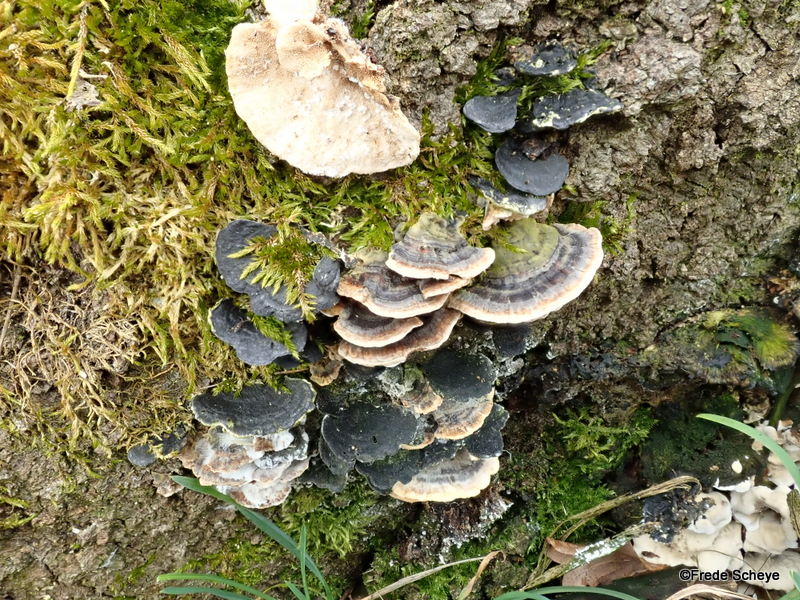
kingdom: Fungi
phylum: Basidiomycota
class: Agaricomycetes
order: Polyporales
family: Polyporaceae
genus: Trametes
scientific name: Trametes versicolor
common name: broget læderporesvamp
